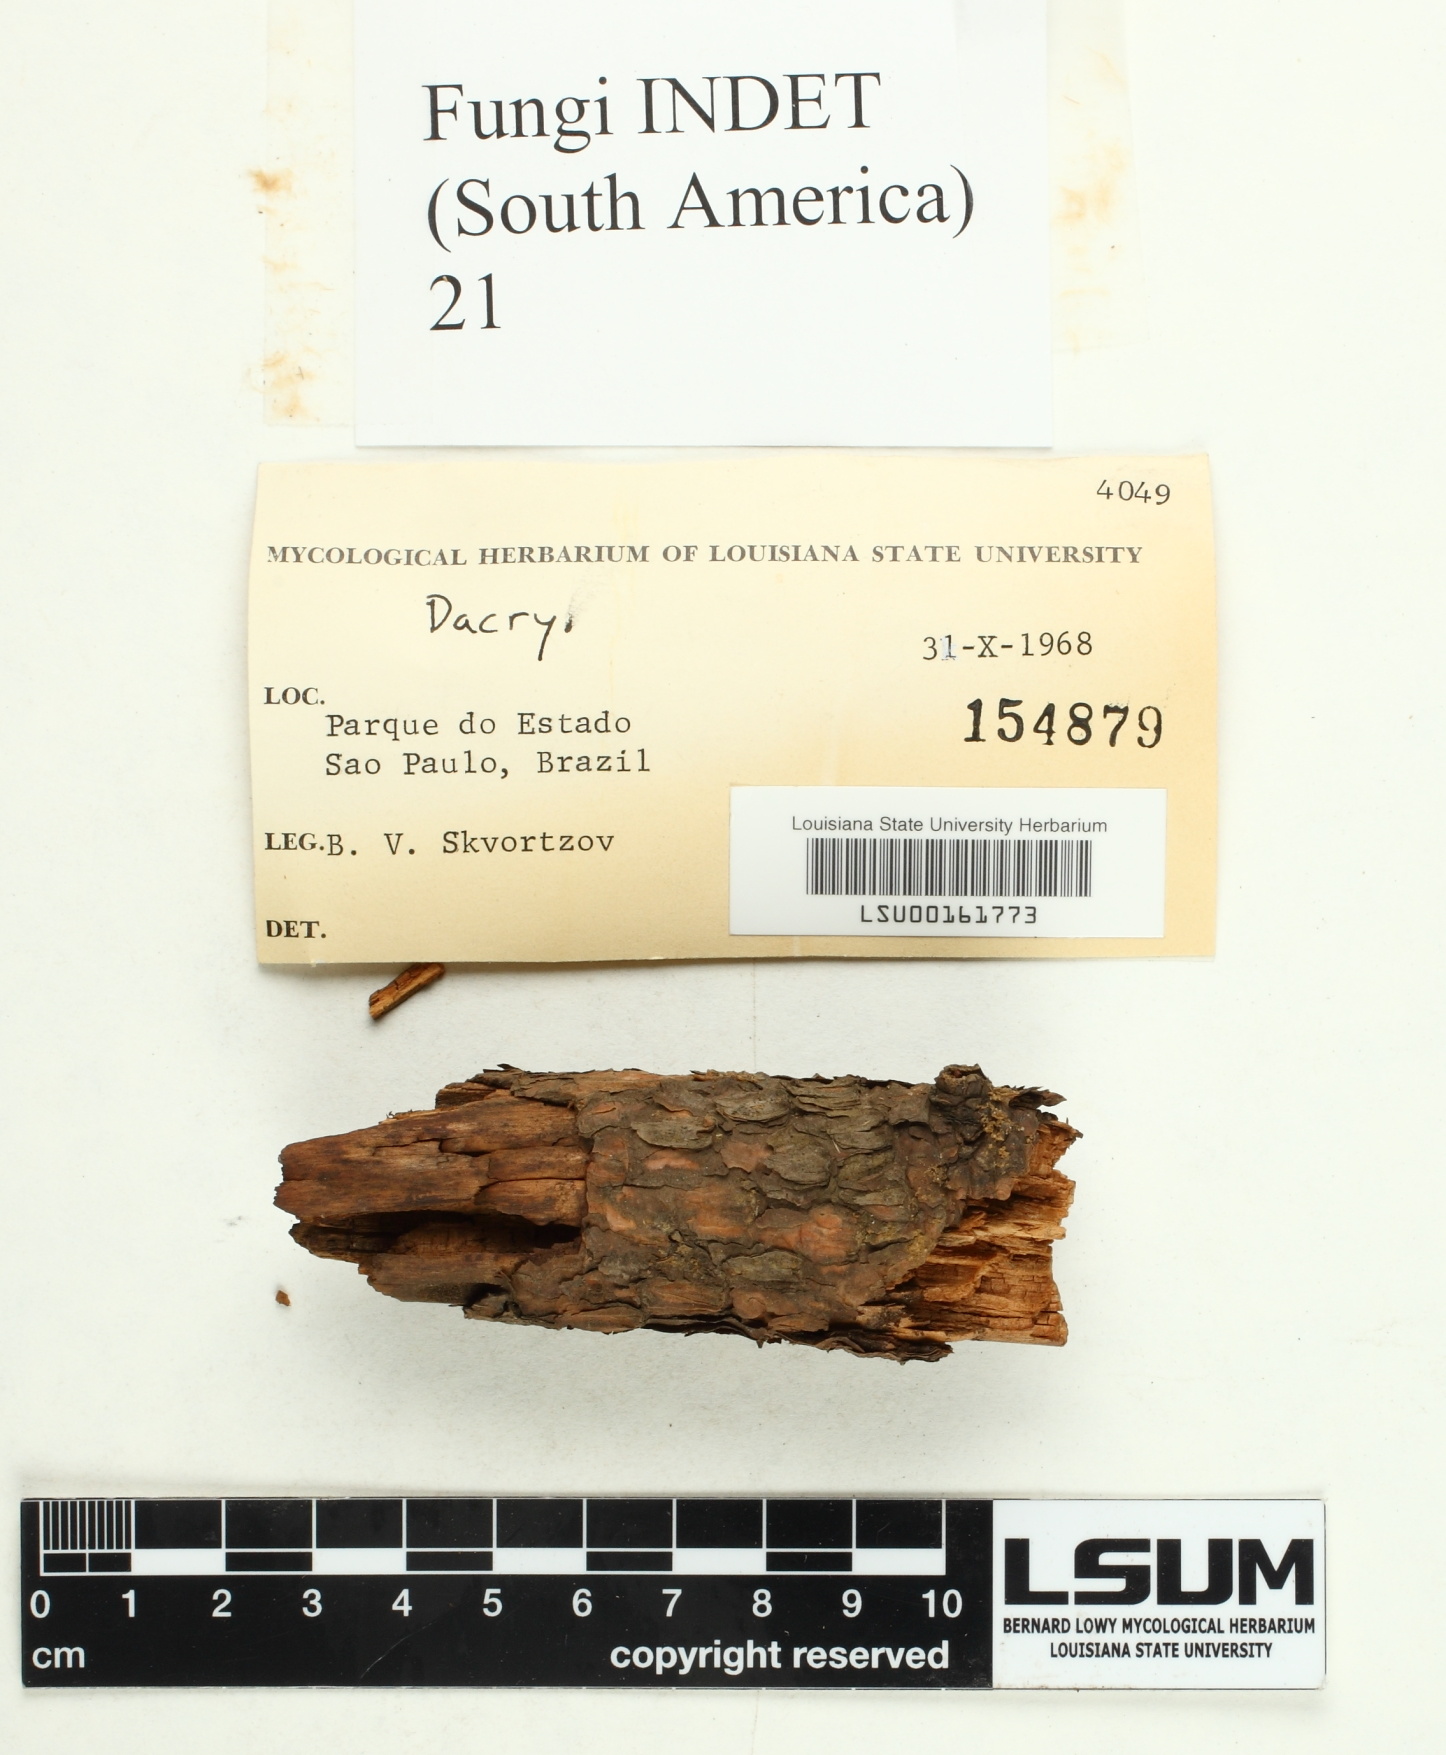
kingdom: Fungi
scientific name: Fungi
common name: Fungi
